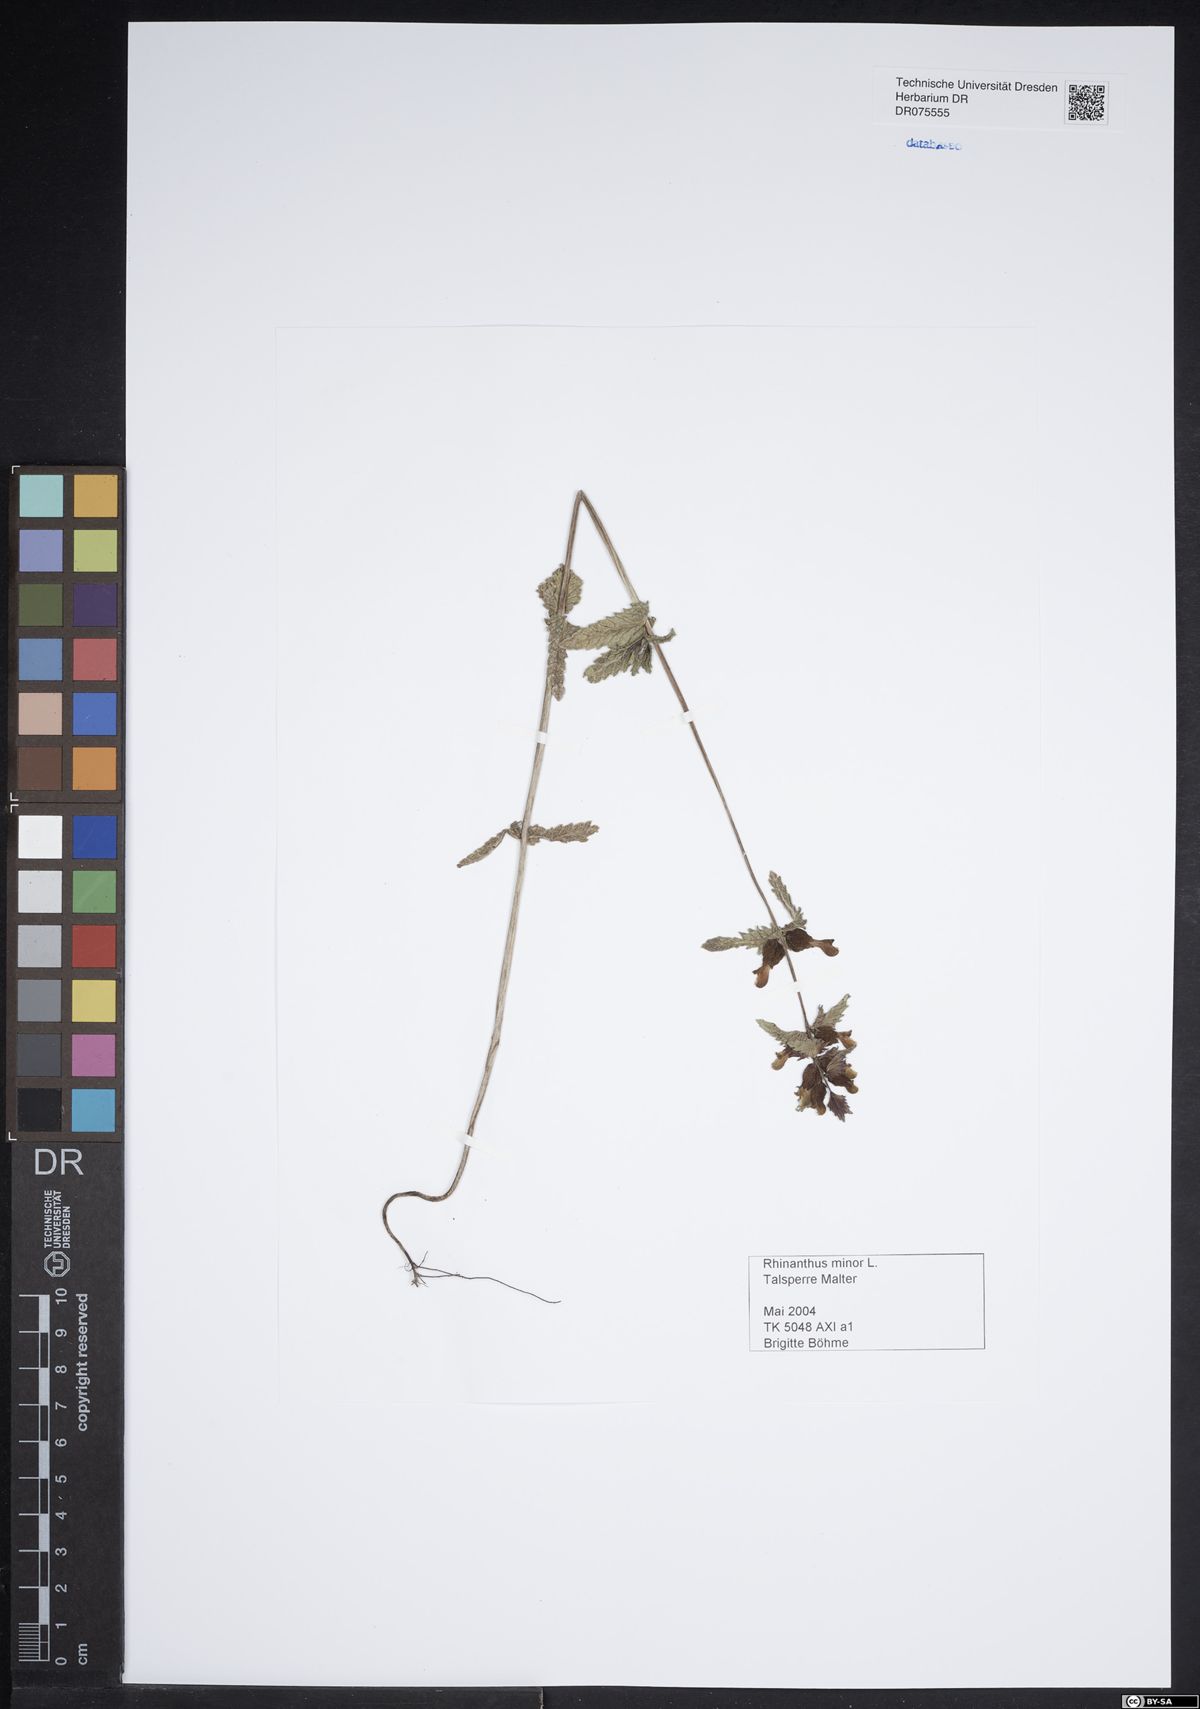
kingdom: Plantae
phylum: Tracheophyta
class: Magnoliopsida
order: Lamiales
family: Orobanchaceae
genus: Rhinanthus
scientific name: Rhinanthus minor
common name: Yellow-rattle
